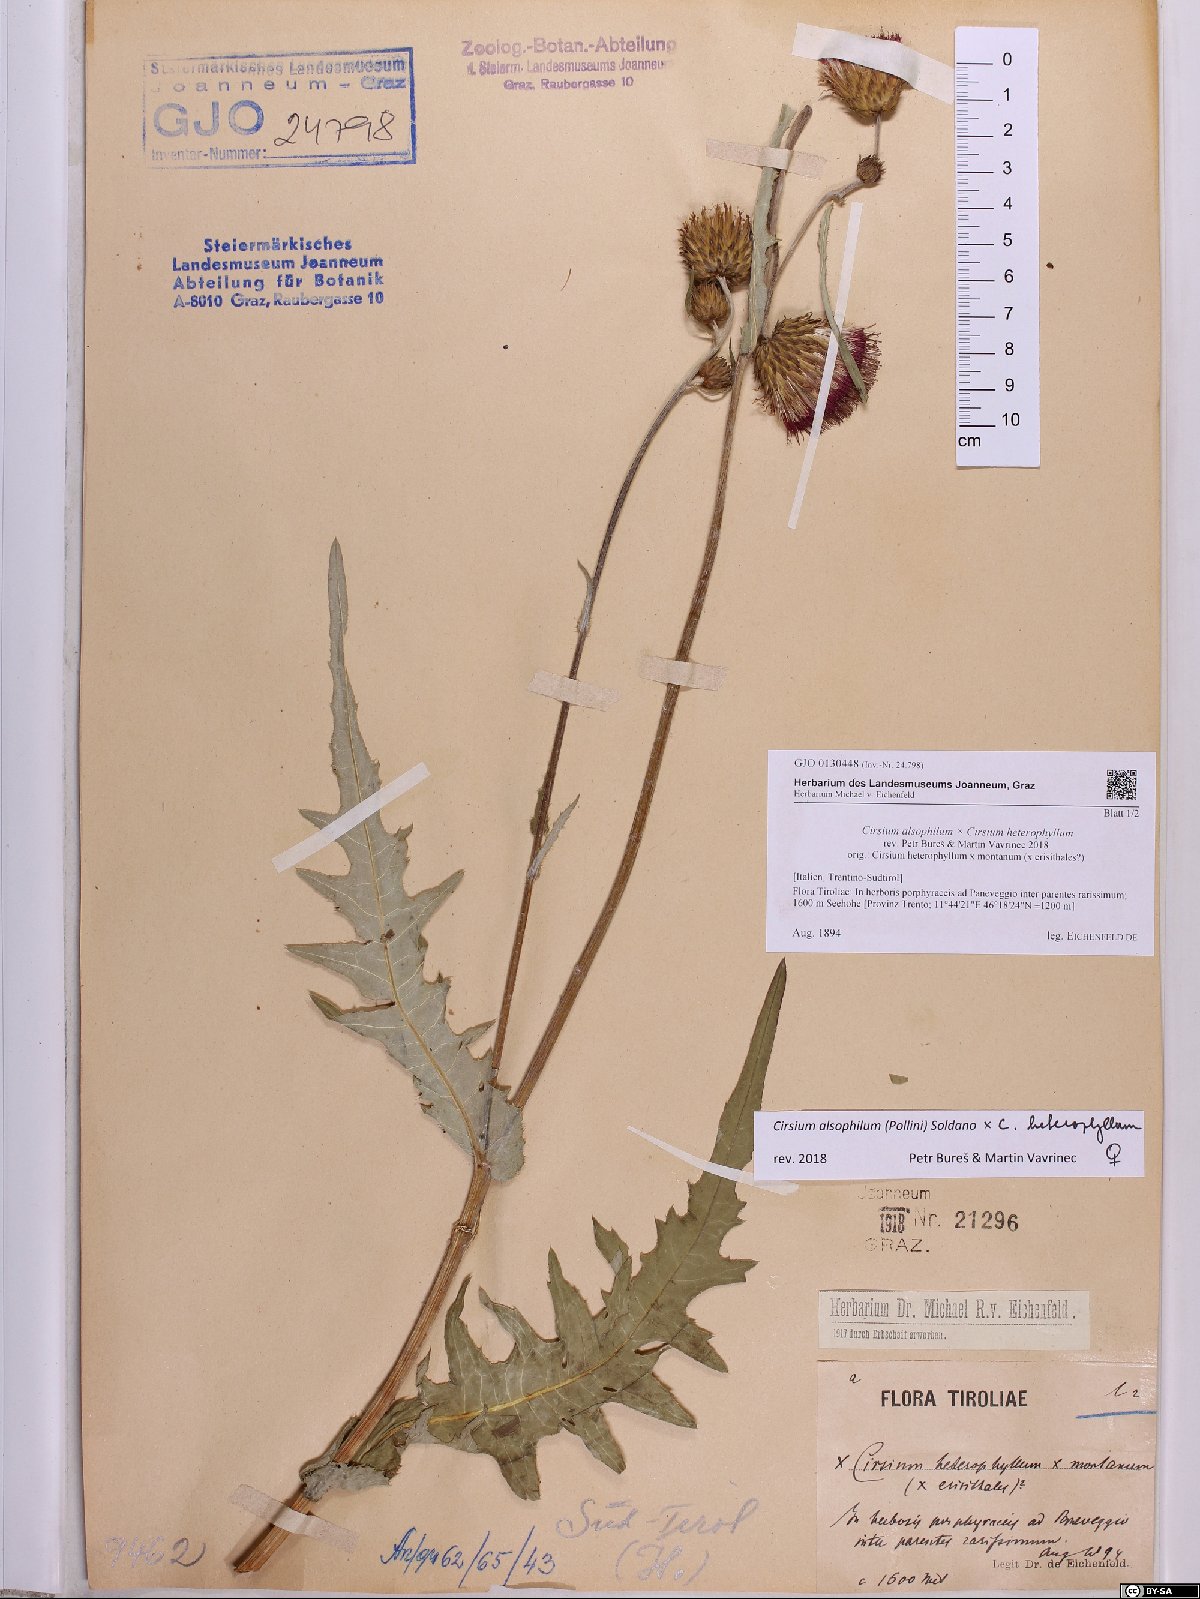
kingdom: Plantae
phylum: Tracheophyta
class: Magnoliopsida
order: Asterales
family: Asteraceae
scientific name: Asteraceae
